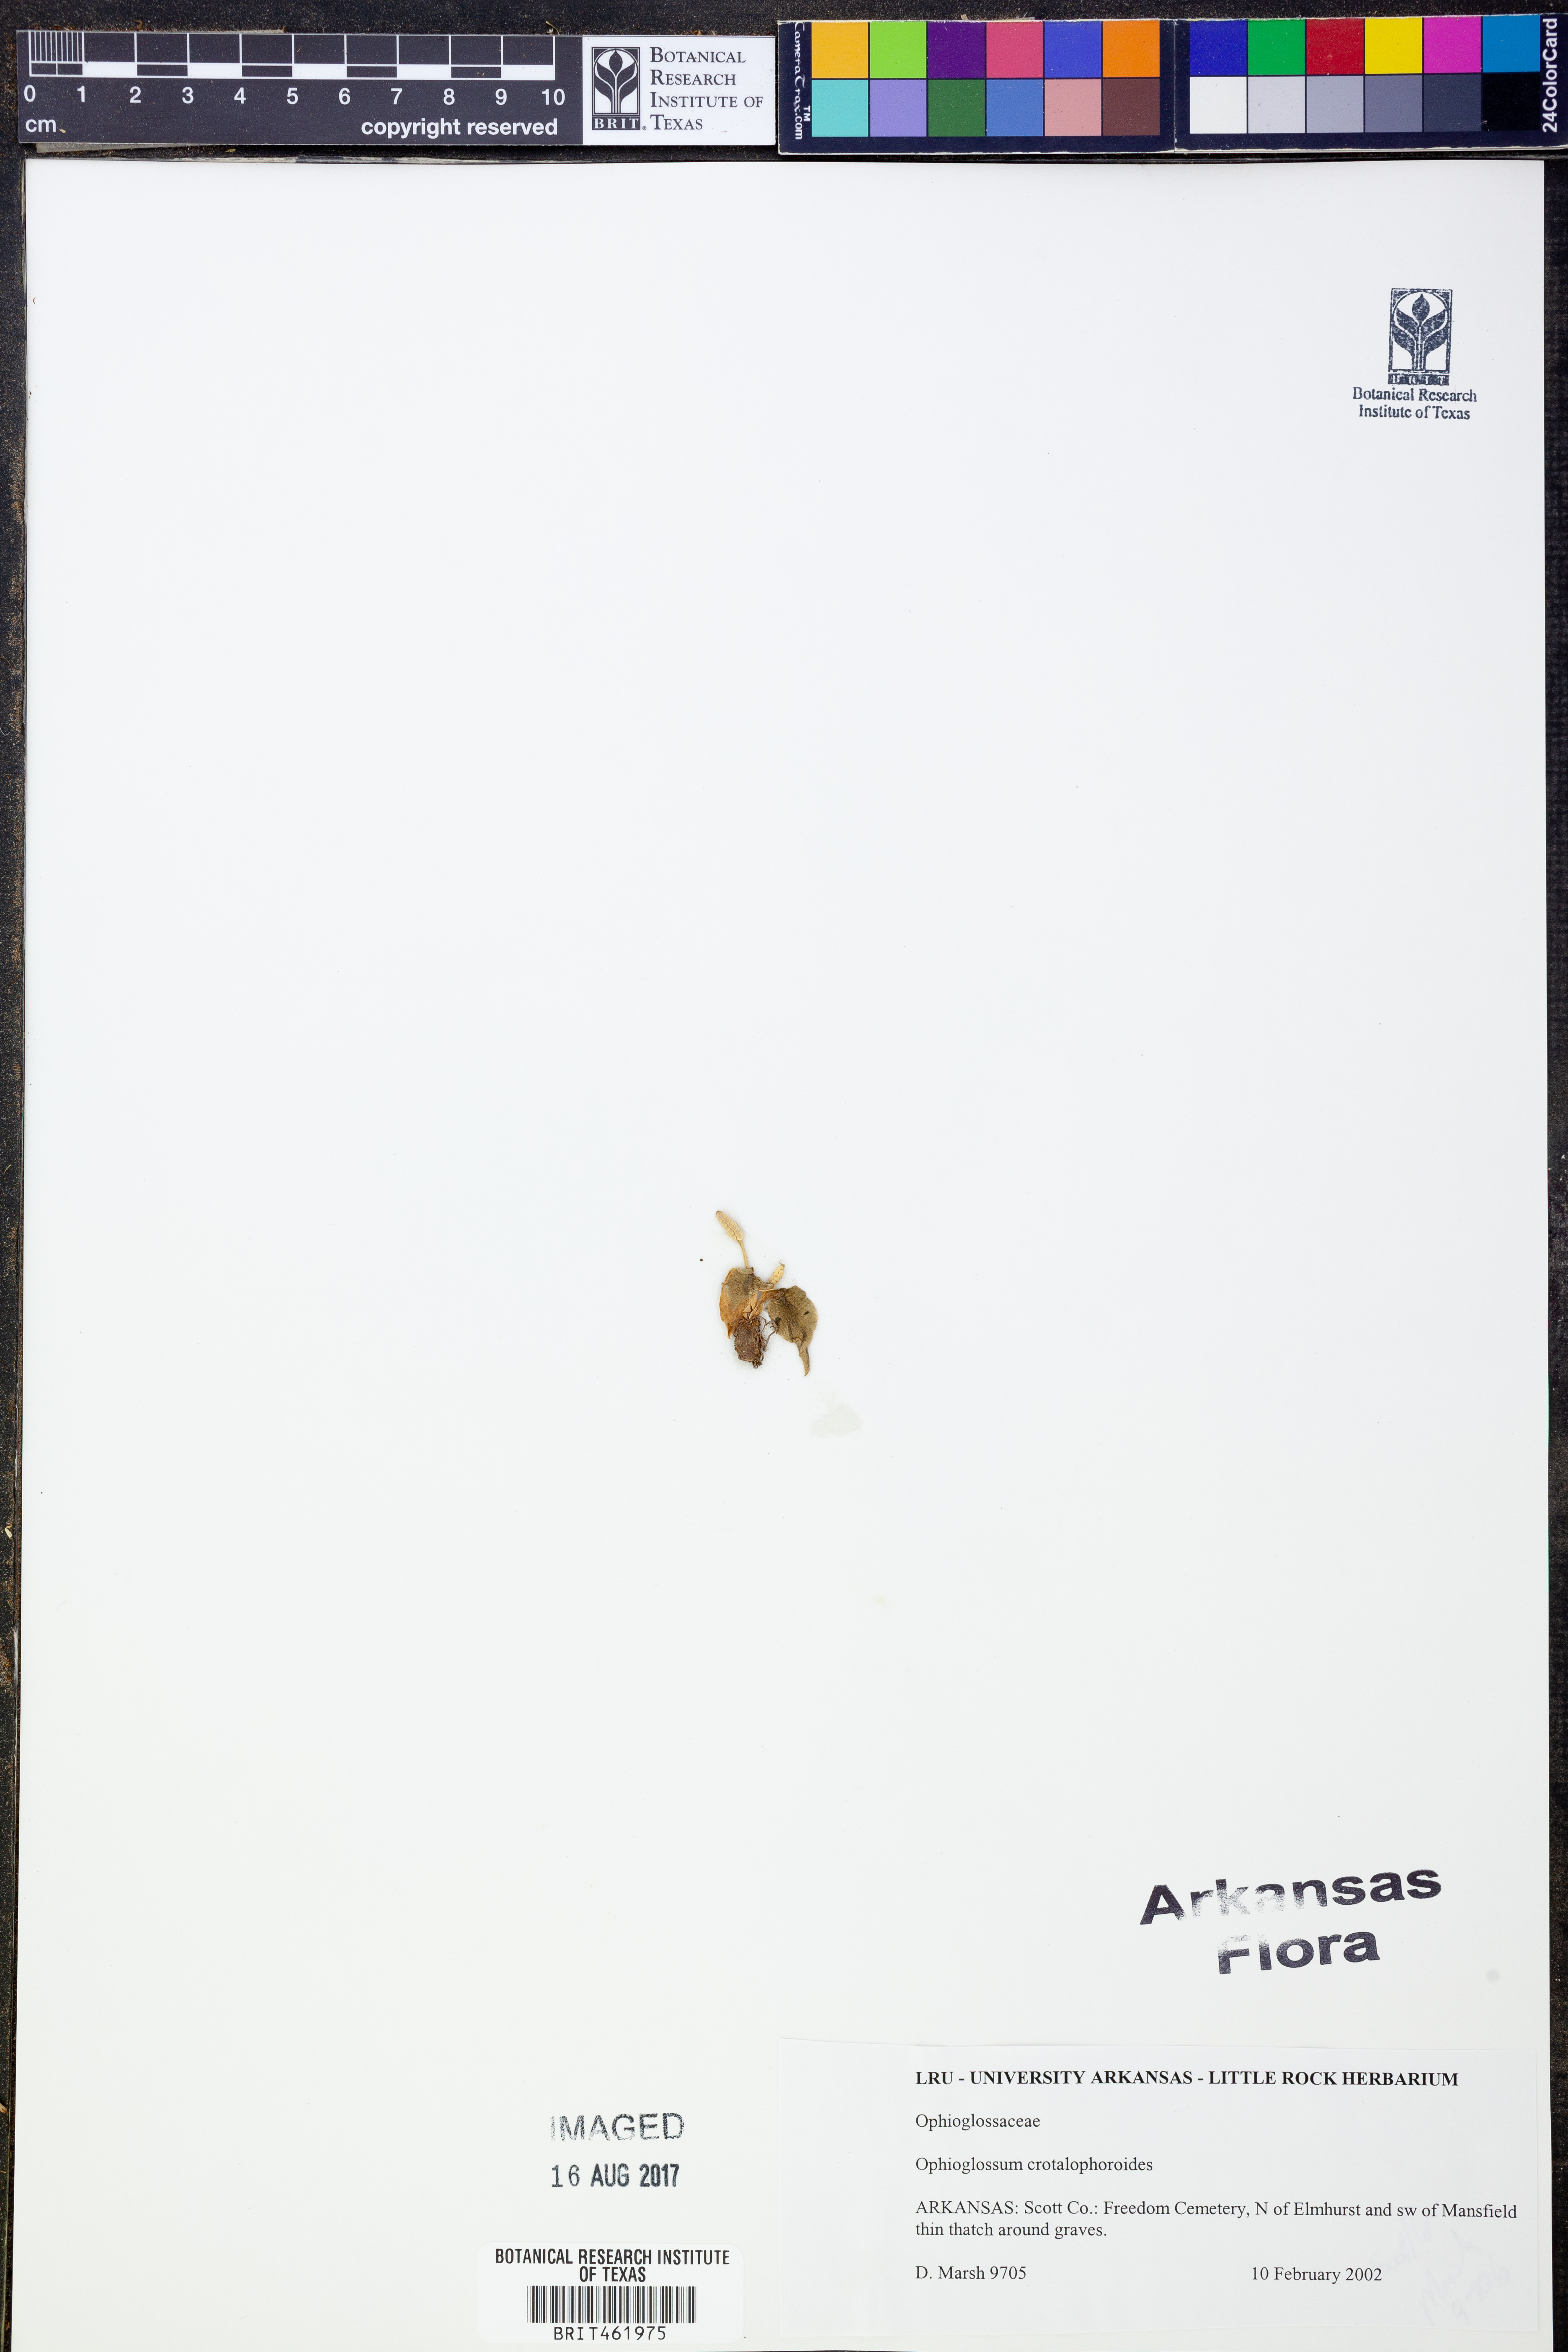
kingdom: Plantae
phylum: Tracheophyta
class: Polypodiopsida
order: Ophioglossales
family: Ophioglossaceae
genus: Ophioglossum
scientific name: Ophioglossum crotalophoroides
